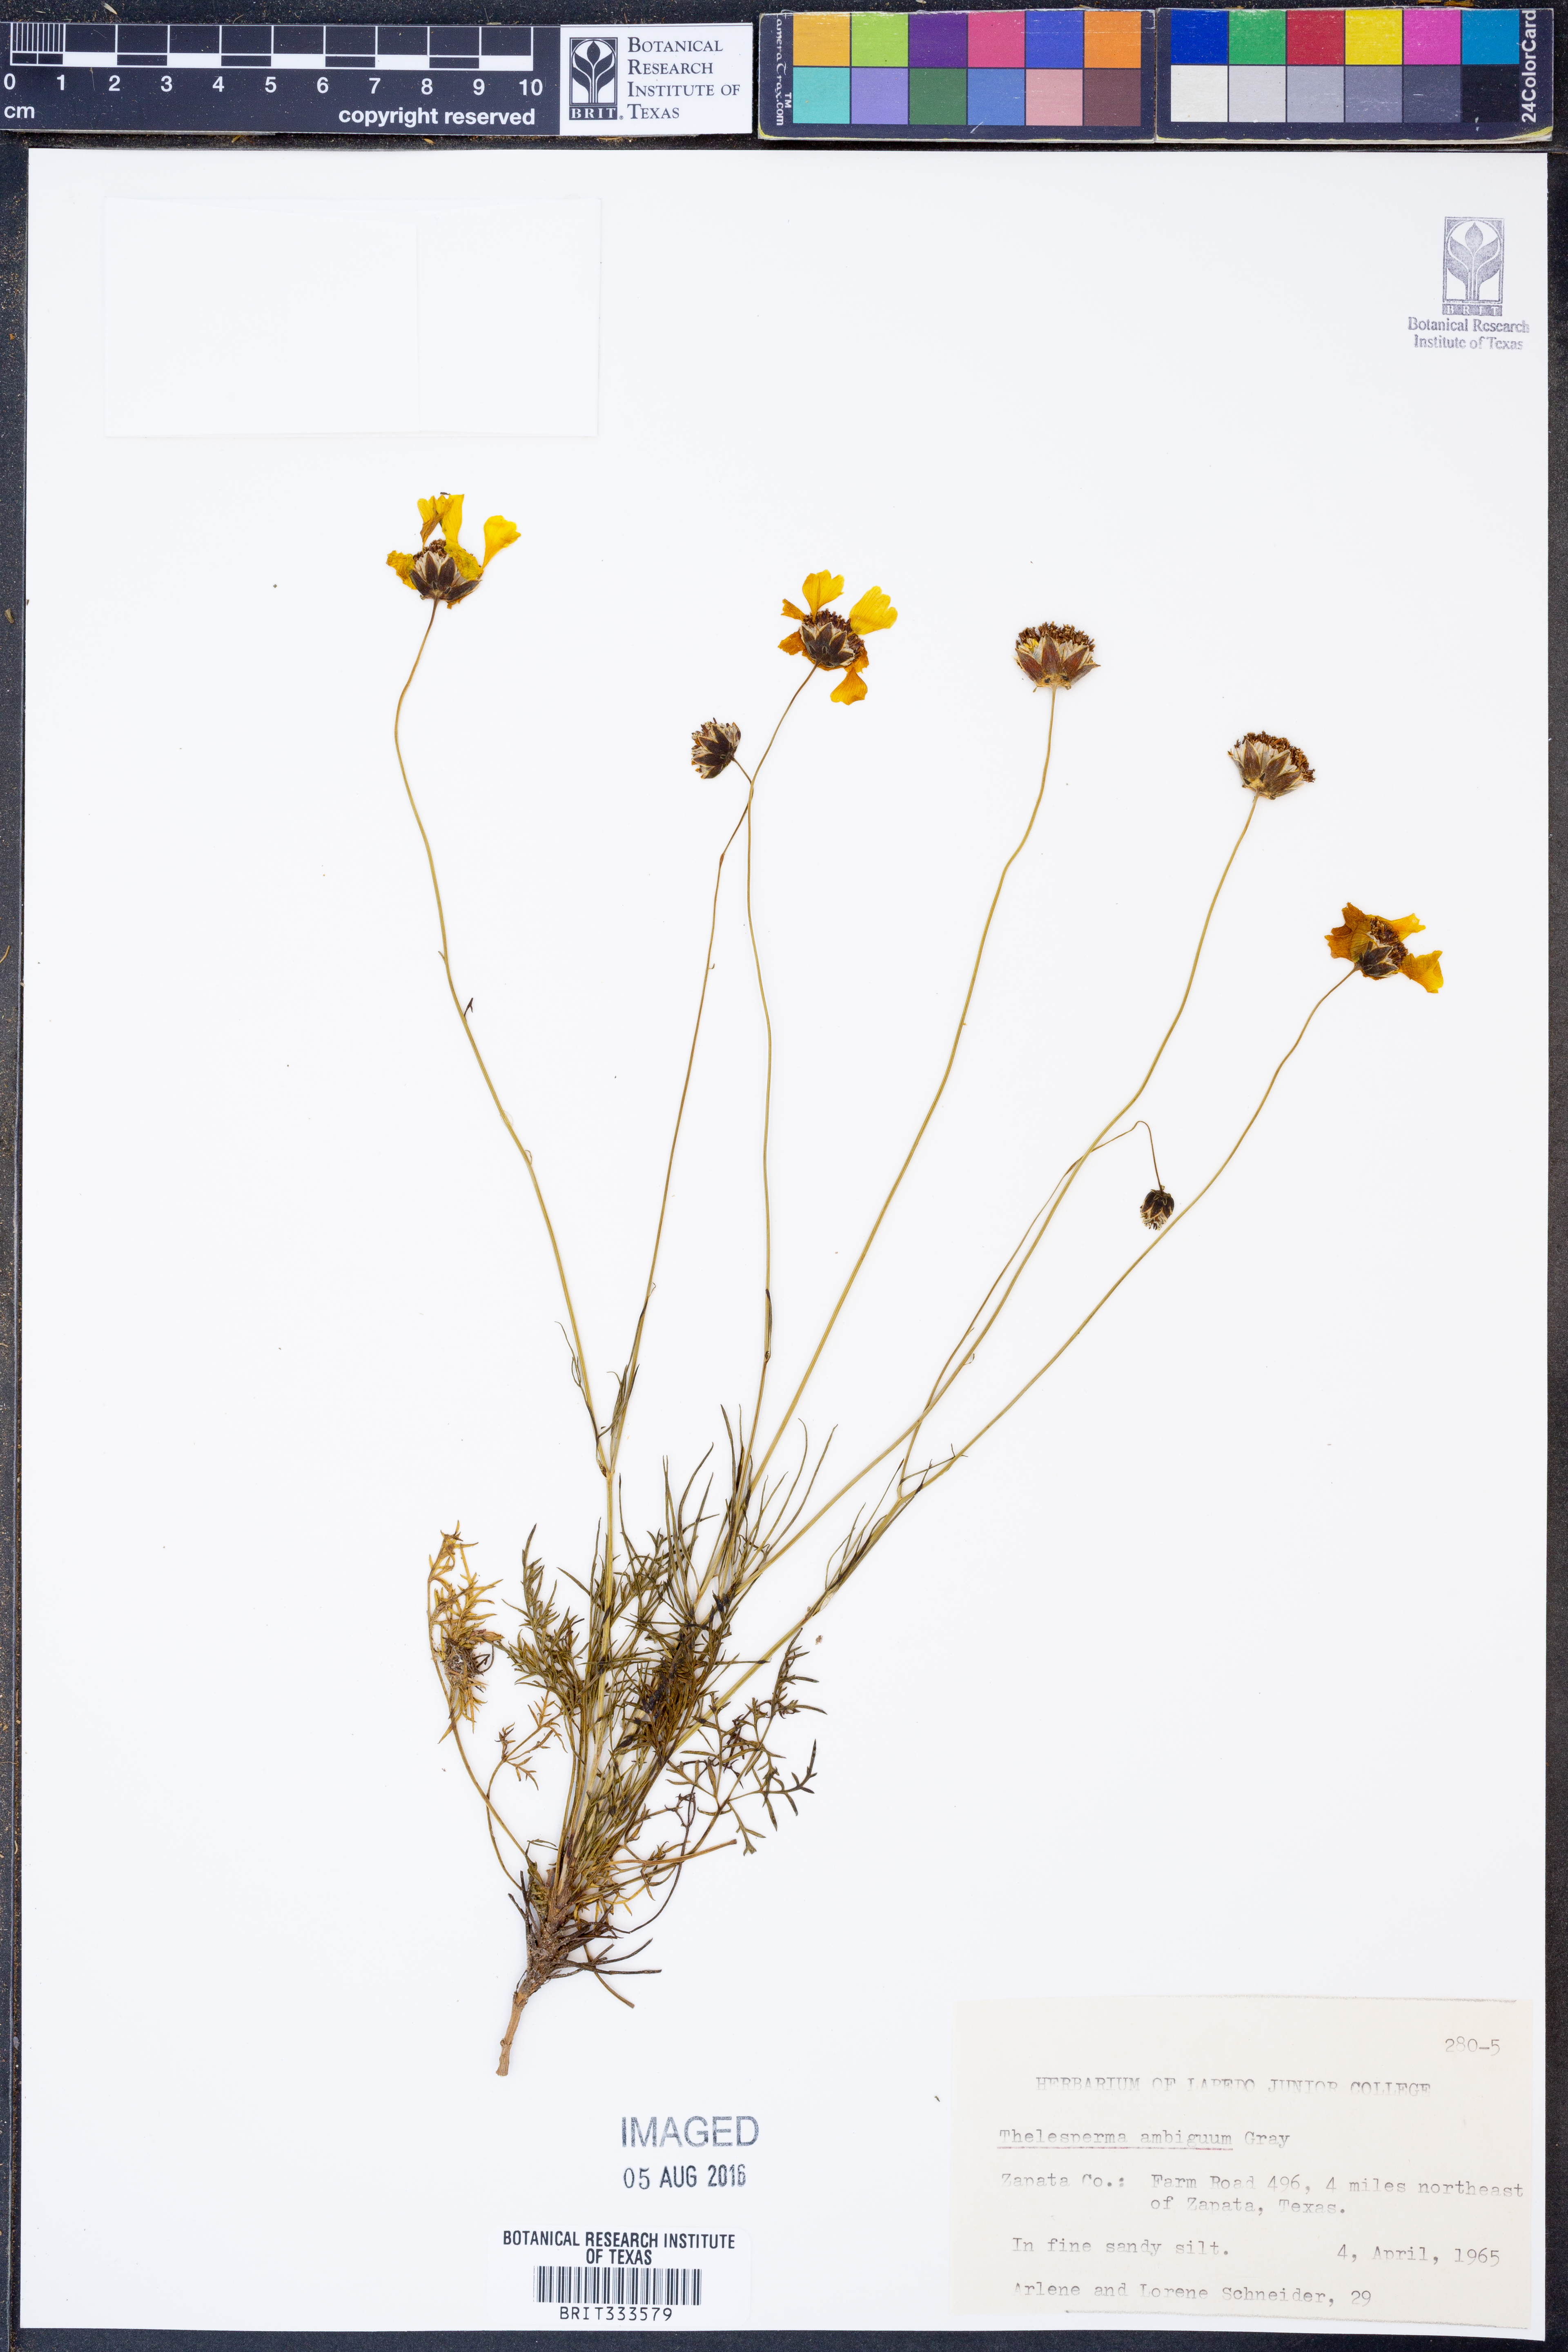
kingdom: Plantae
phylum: Tracheophyta
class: Magnoliopsida
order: Asterales
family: Asteraceae
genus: Thelesperma
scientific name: Thelesperma ambiguum
